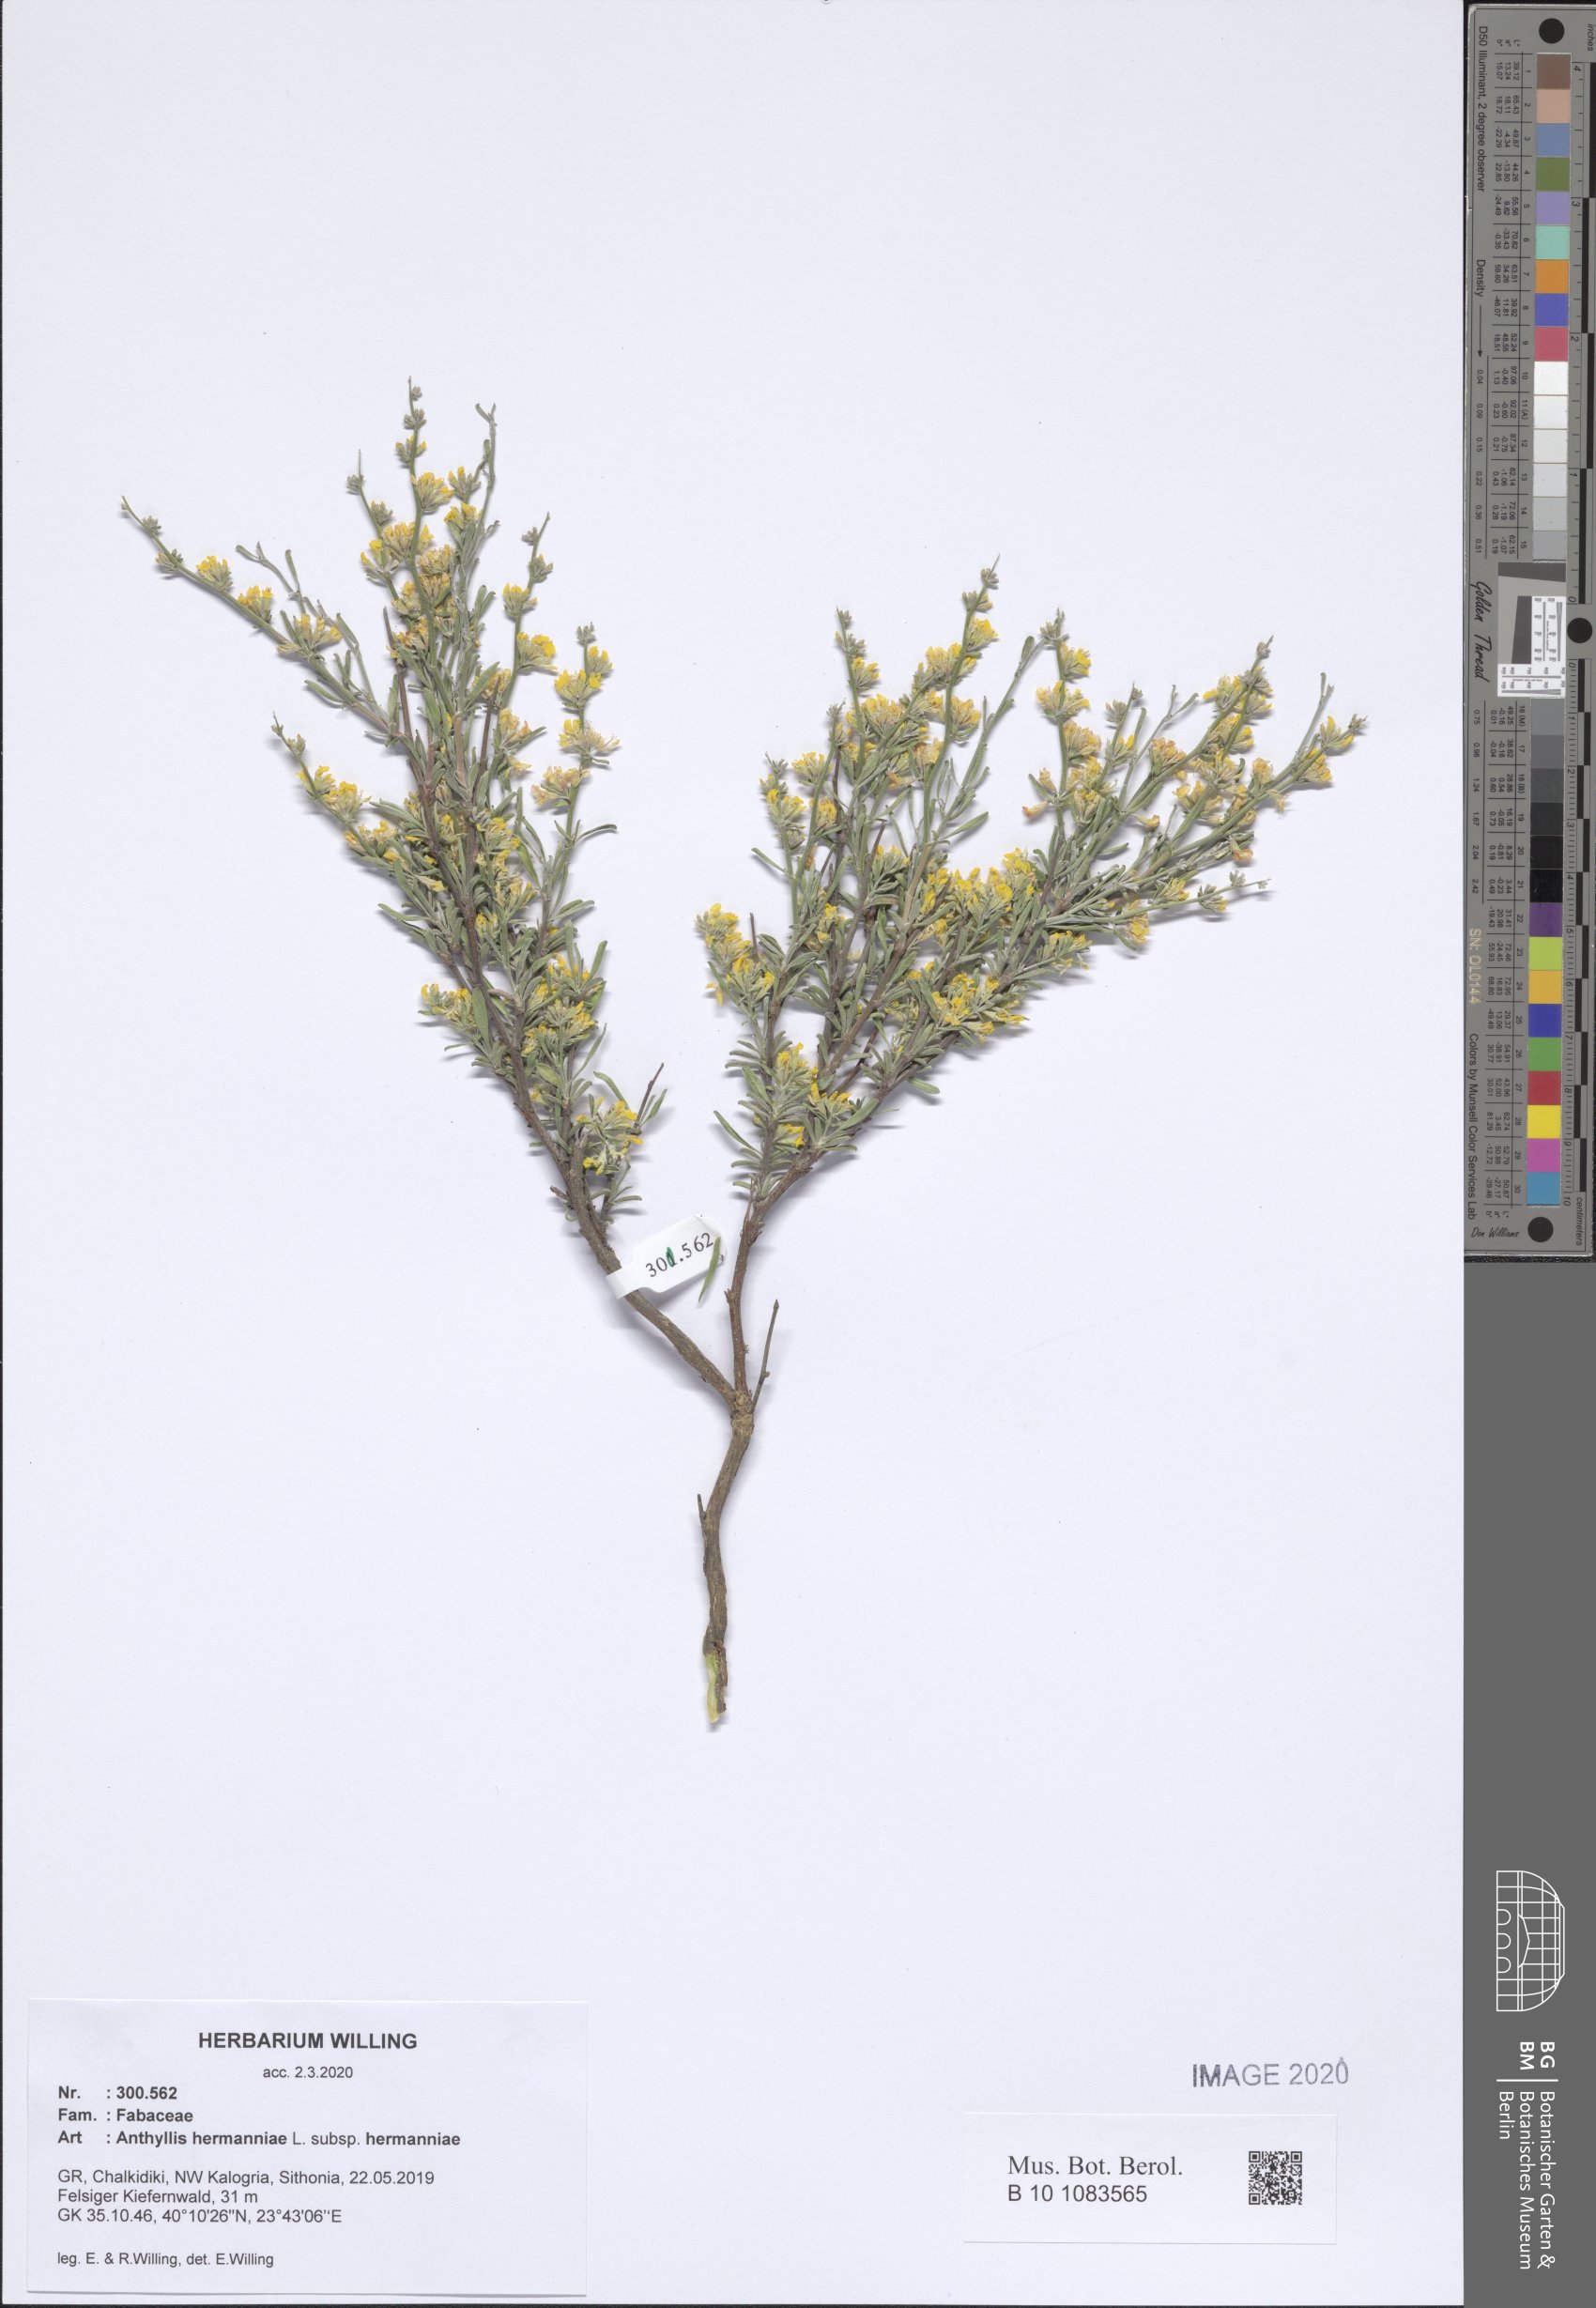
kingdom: Plantae
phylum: Tracheophyta
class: Magnoliopsida
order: Fabales
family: Fabaceae
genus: Anthyllis
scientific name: Anthyllis hermanniae
